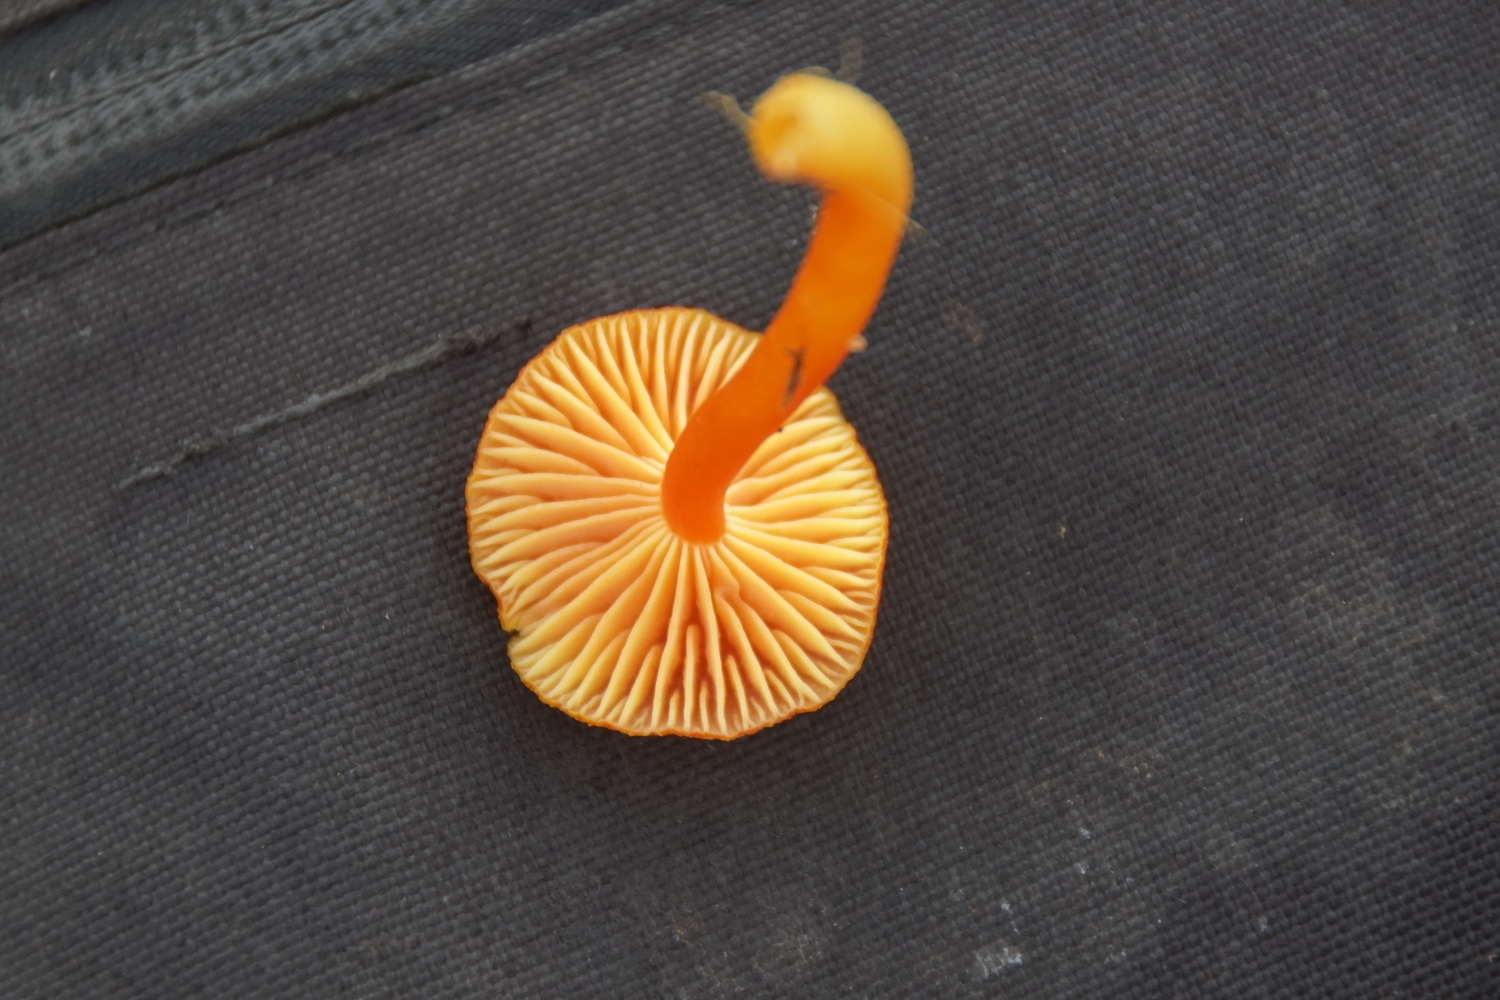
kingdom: Fungi
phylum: Basidiomycota
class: Agaricomycetes
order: Agaricales
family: Hygrophoraceae
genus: Hygrocybe
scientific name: Hygrocybe miniata
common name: mønje-vokshat
